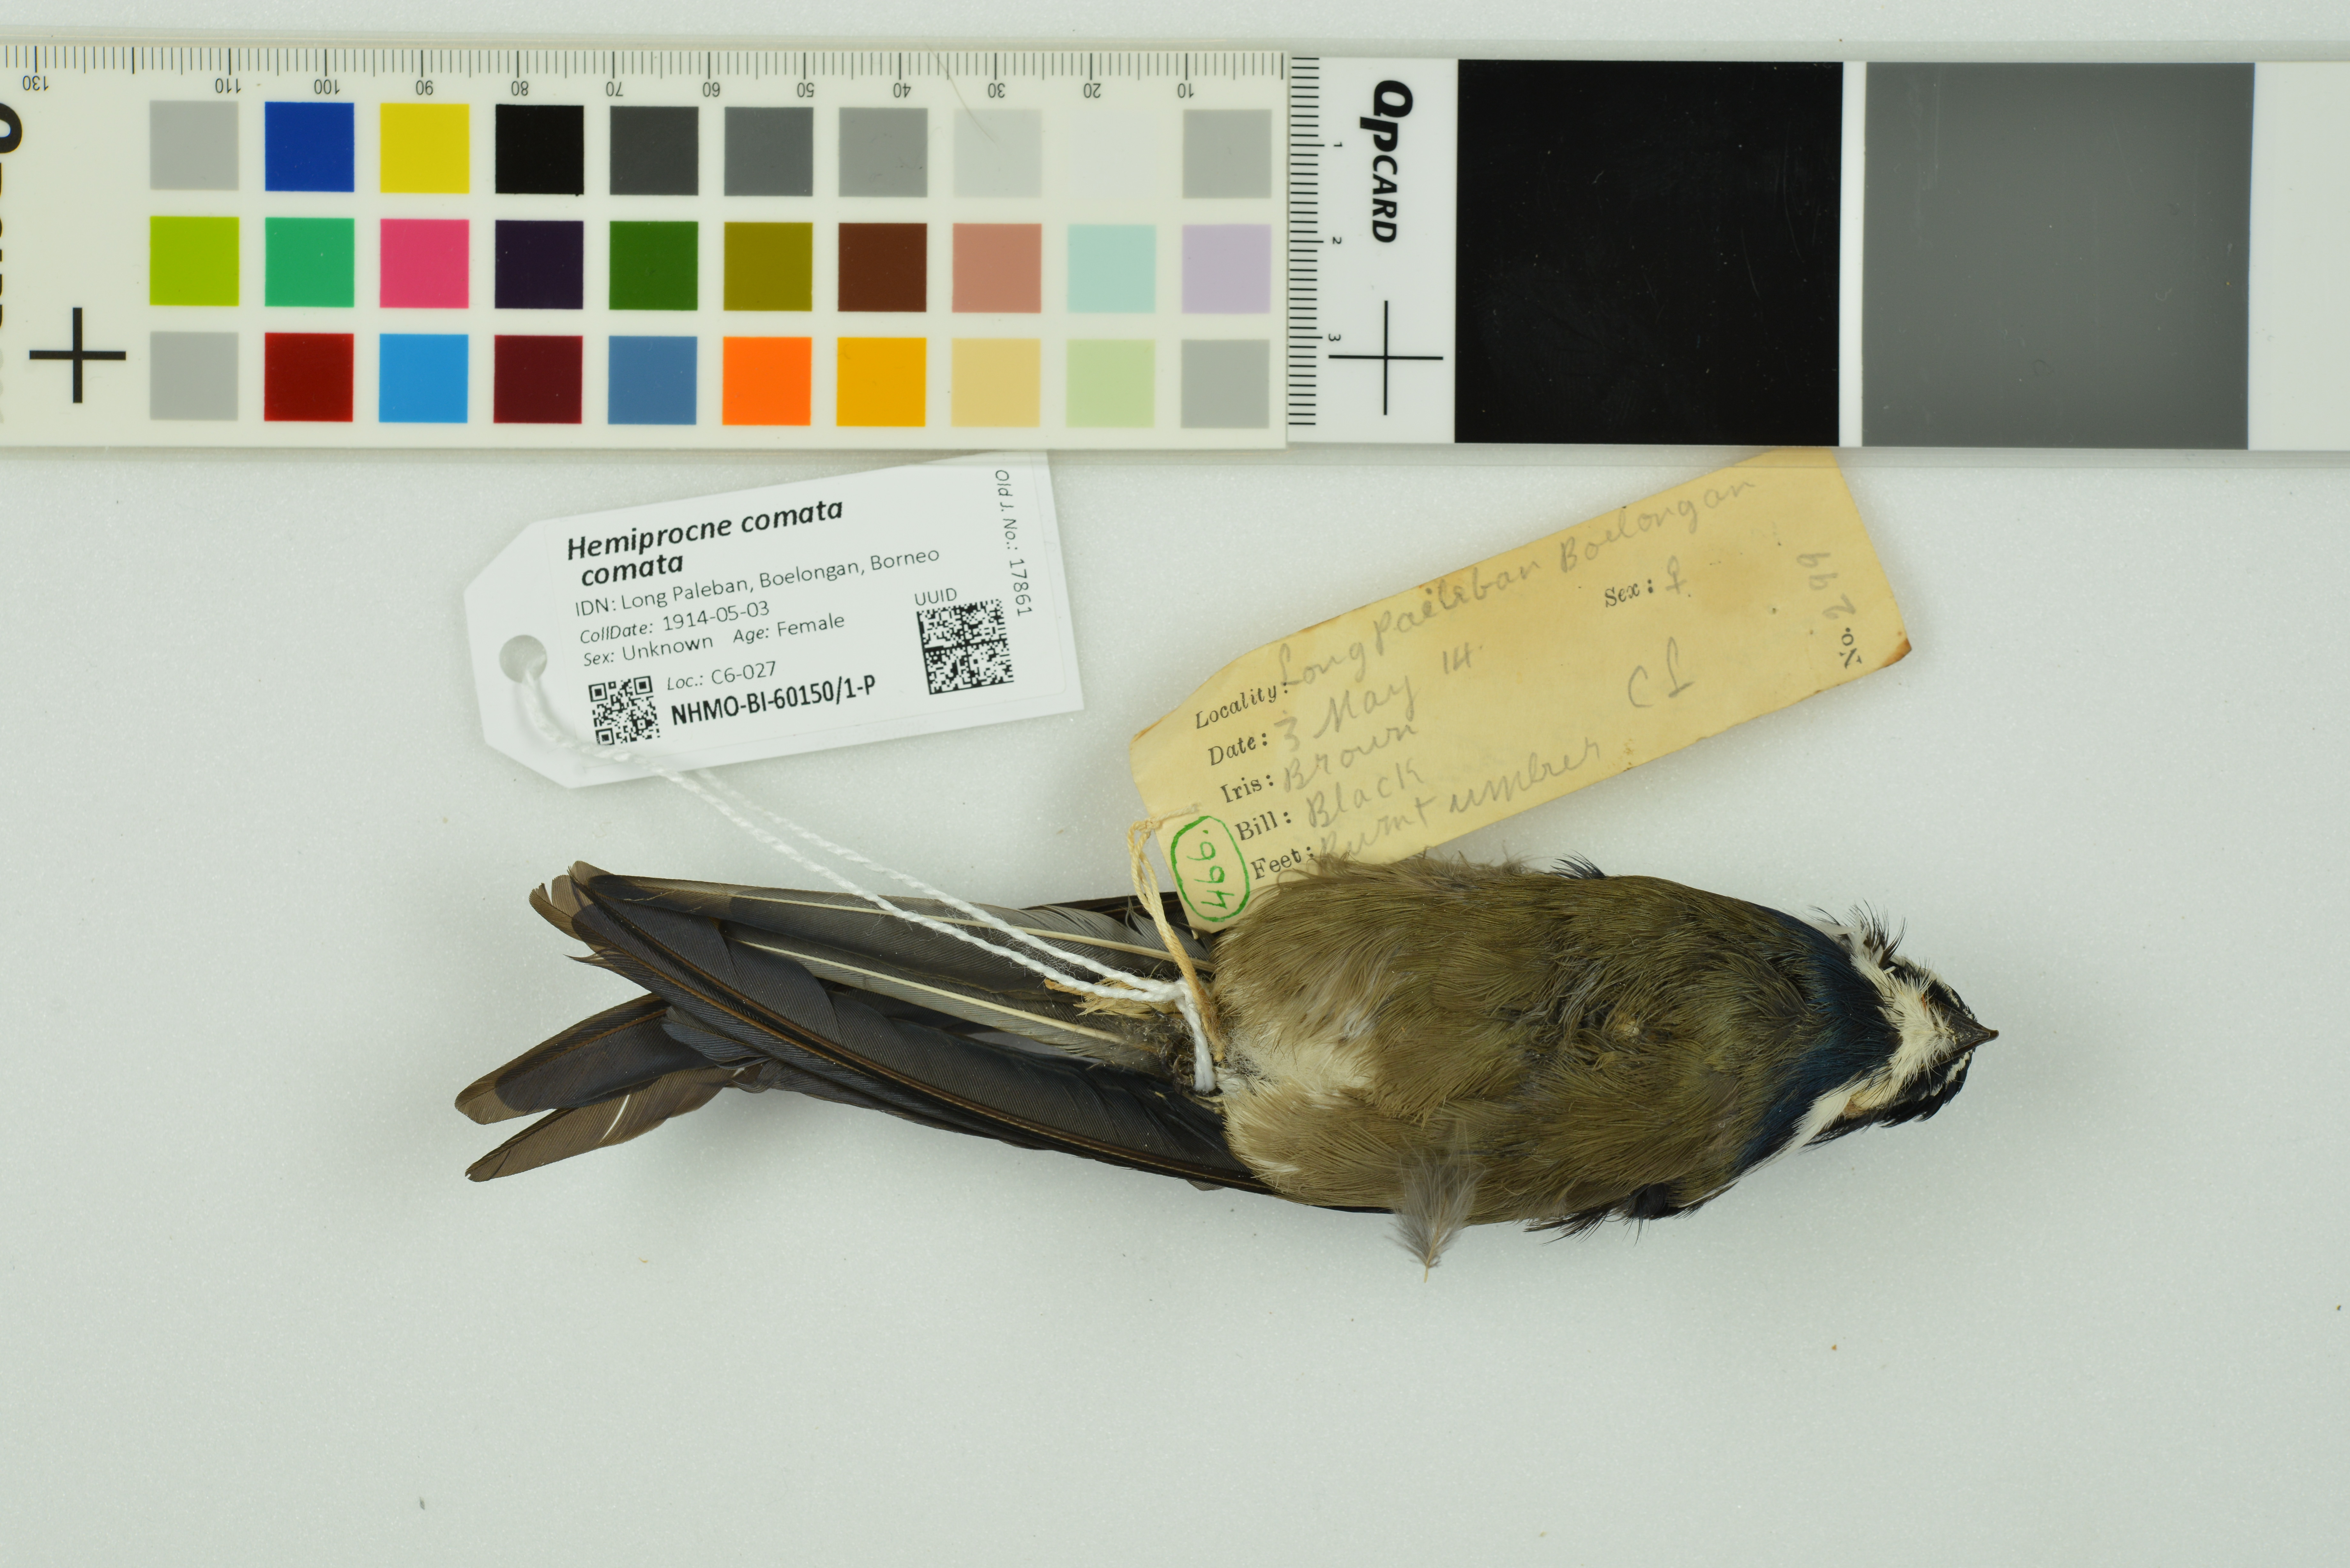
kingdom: Animalia
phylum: Chordata
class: Aves
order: Apodiformes
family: Hemiprocnidae
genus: Hemiprocne
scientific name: Hemiprocne comata
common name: Whiskered treeswift
